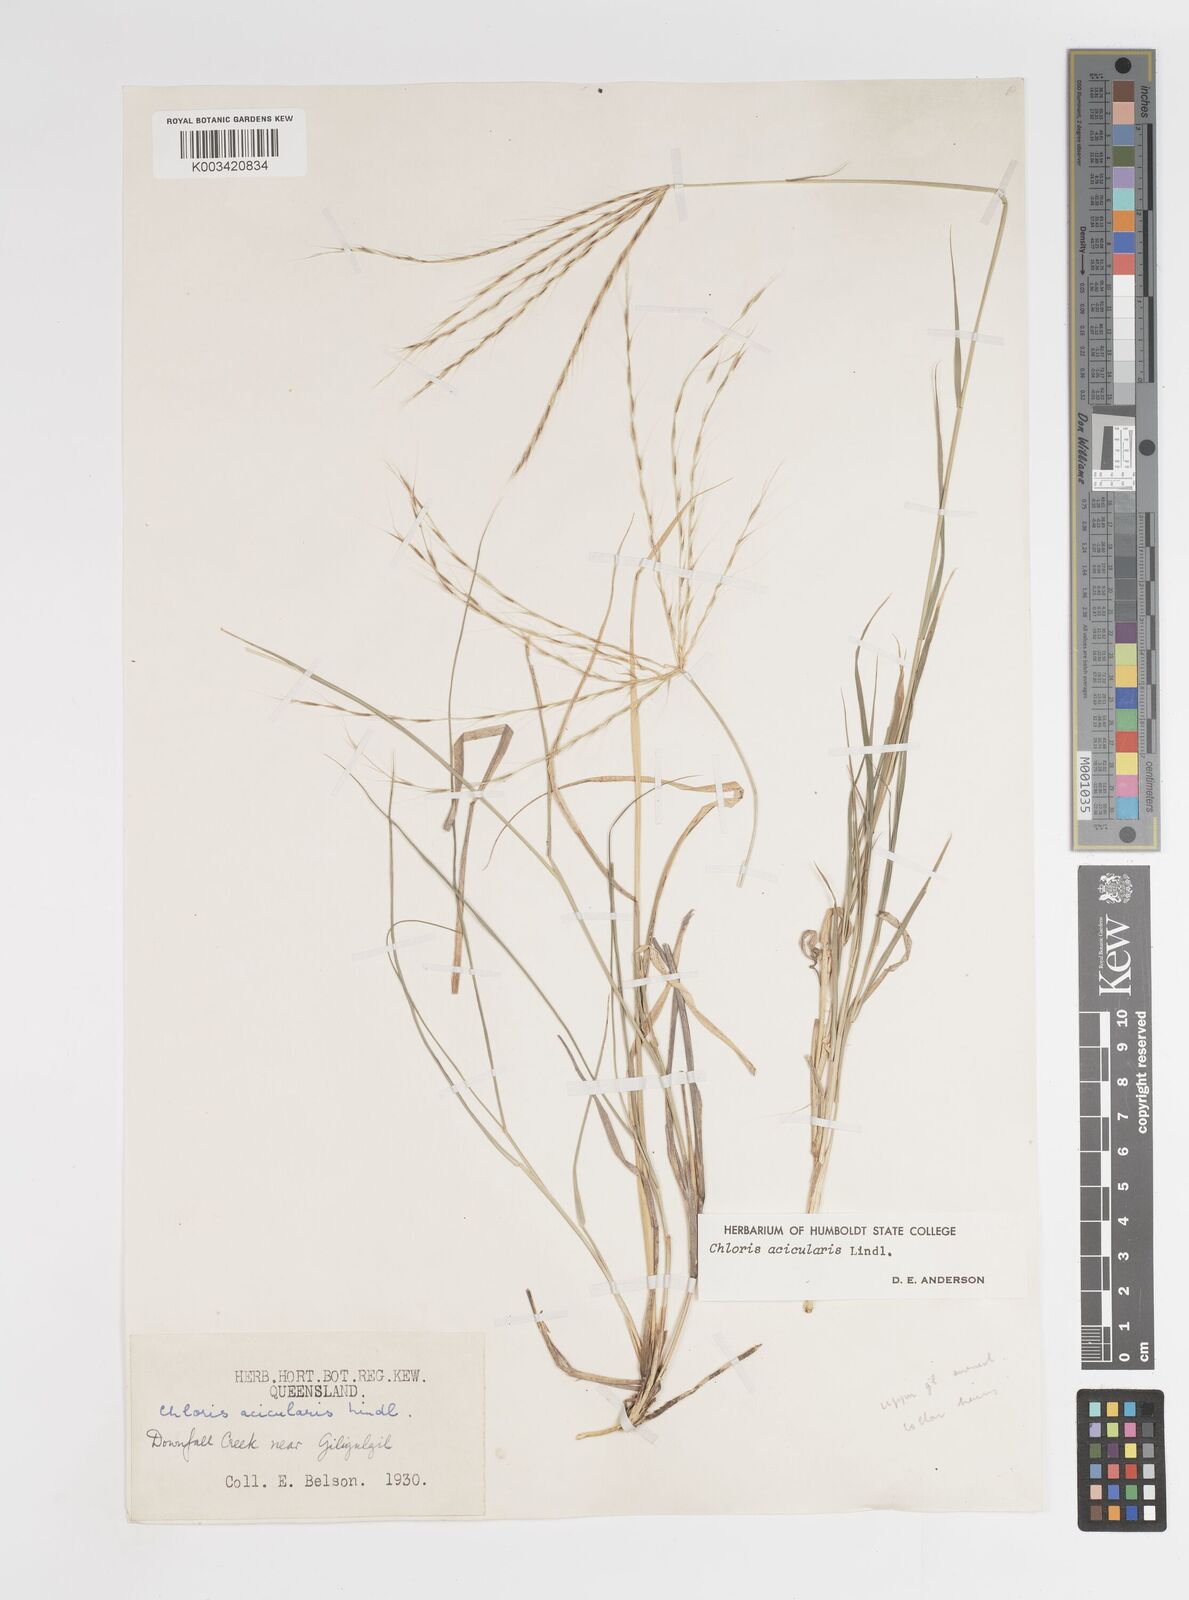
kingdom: Plantae
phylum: Tracheophyta
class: Liliopsida
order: Poales
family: Poaceae
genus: Enteropogon
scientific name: Enteropogon acicularis
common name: Curly windmill grass
